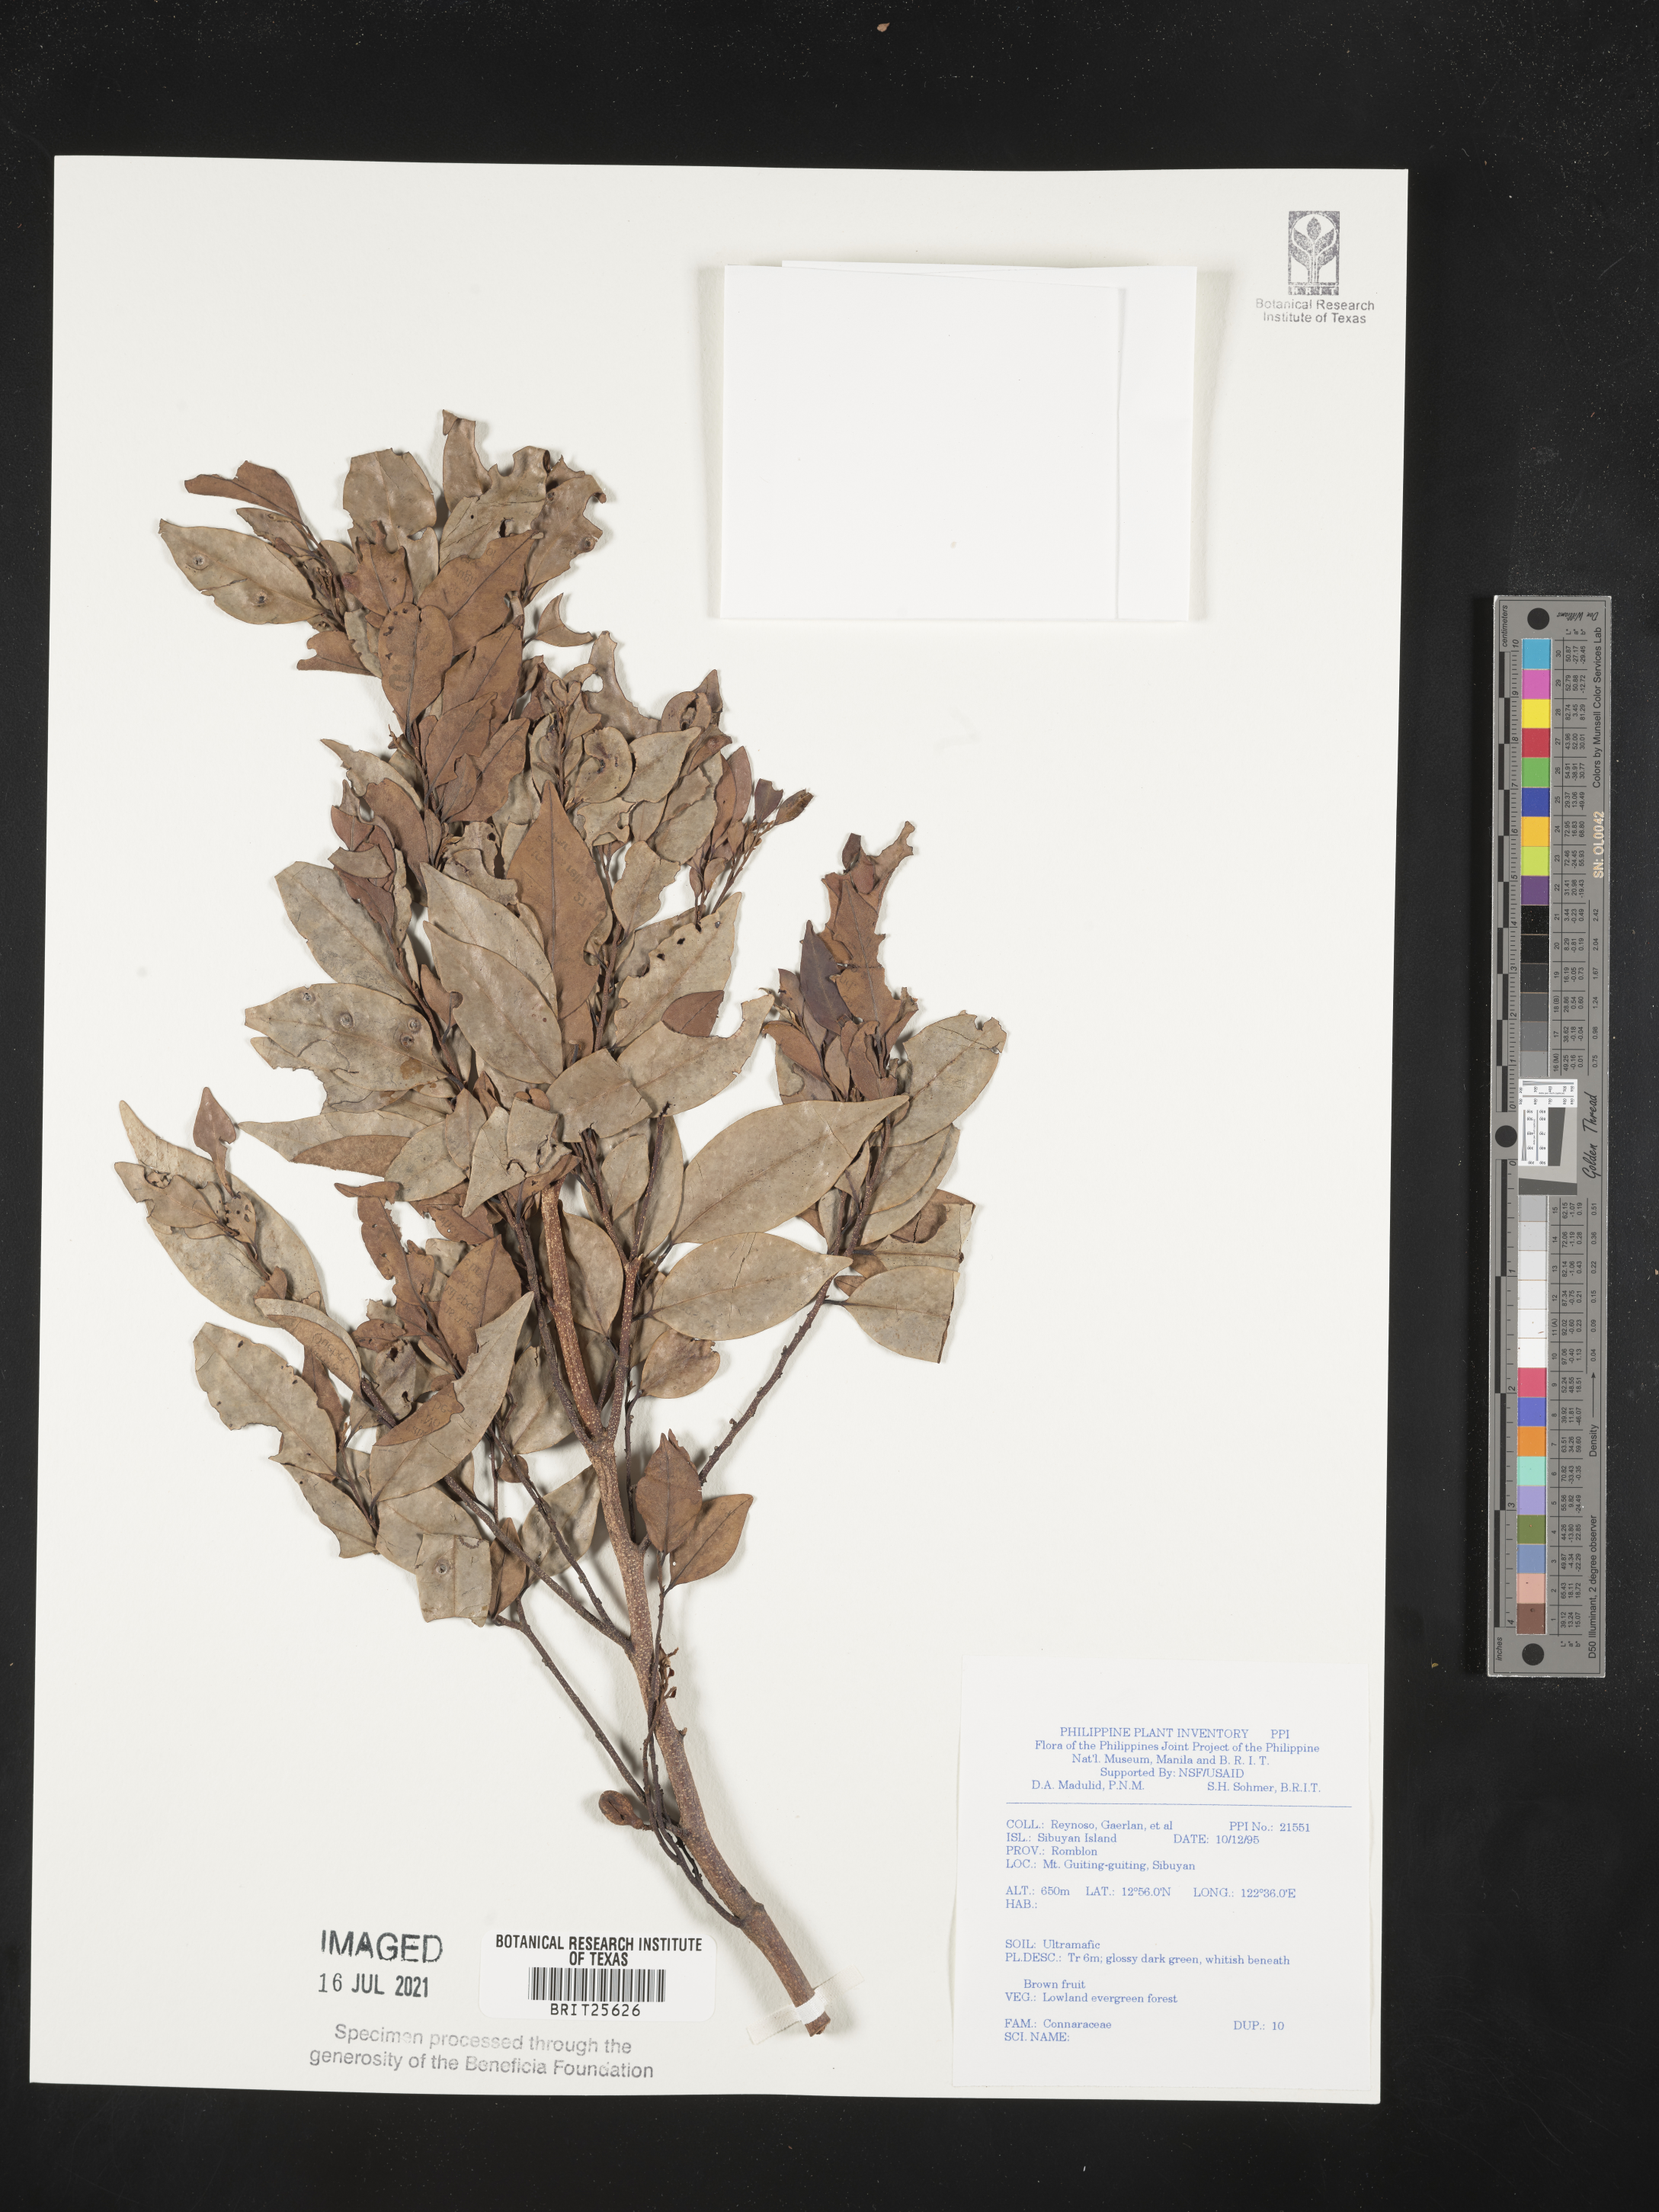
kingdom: Plantae
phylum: Tracheophyta
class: Magnoliopsida
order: Oxalidales
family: Connaraceae
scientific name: Connaraceae
